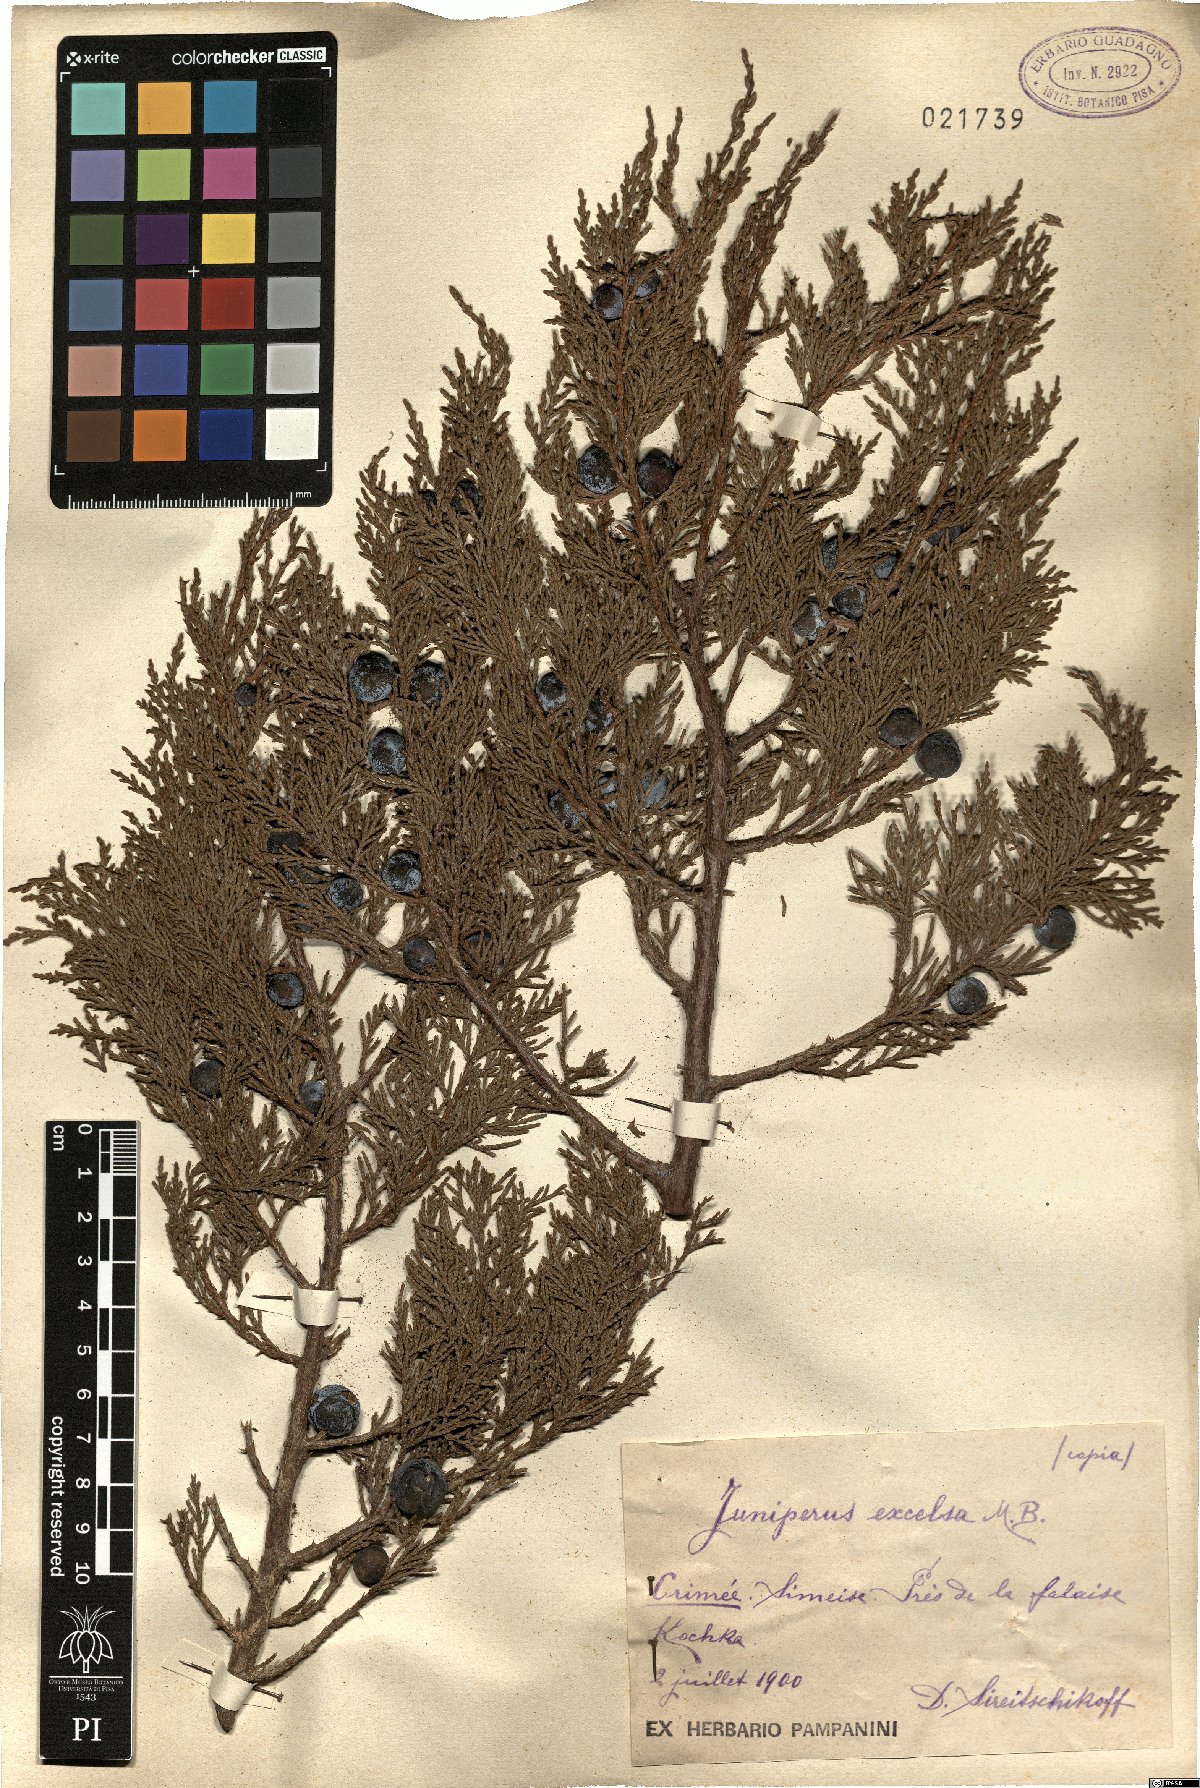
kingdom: Plantae
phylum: Tracheophyta
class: Pinopsida
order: Pinales
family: Cupressaceae
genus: Juniperus
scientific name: Juniperus excelsa
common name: Crimean juniper
